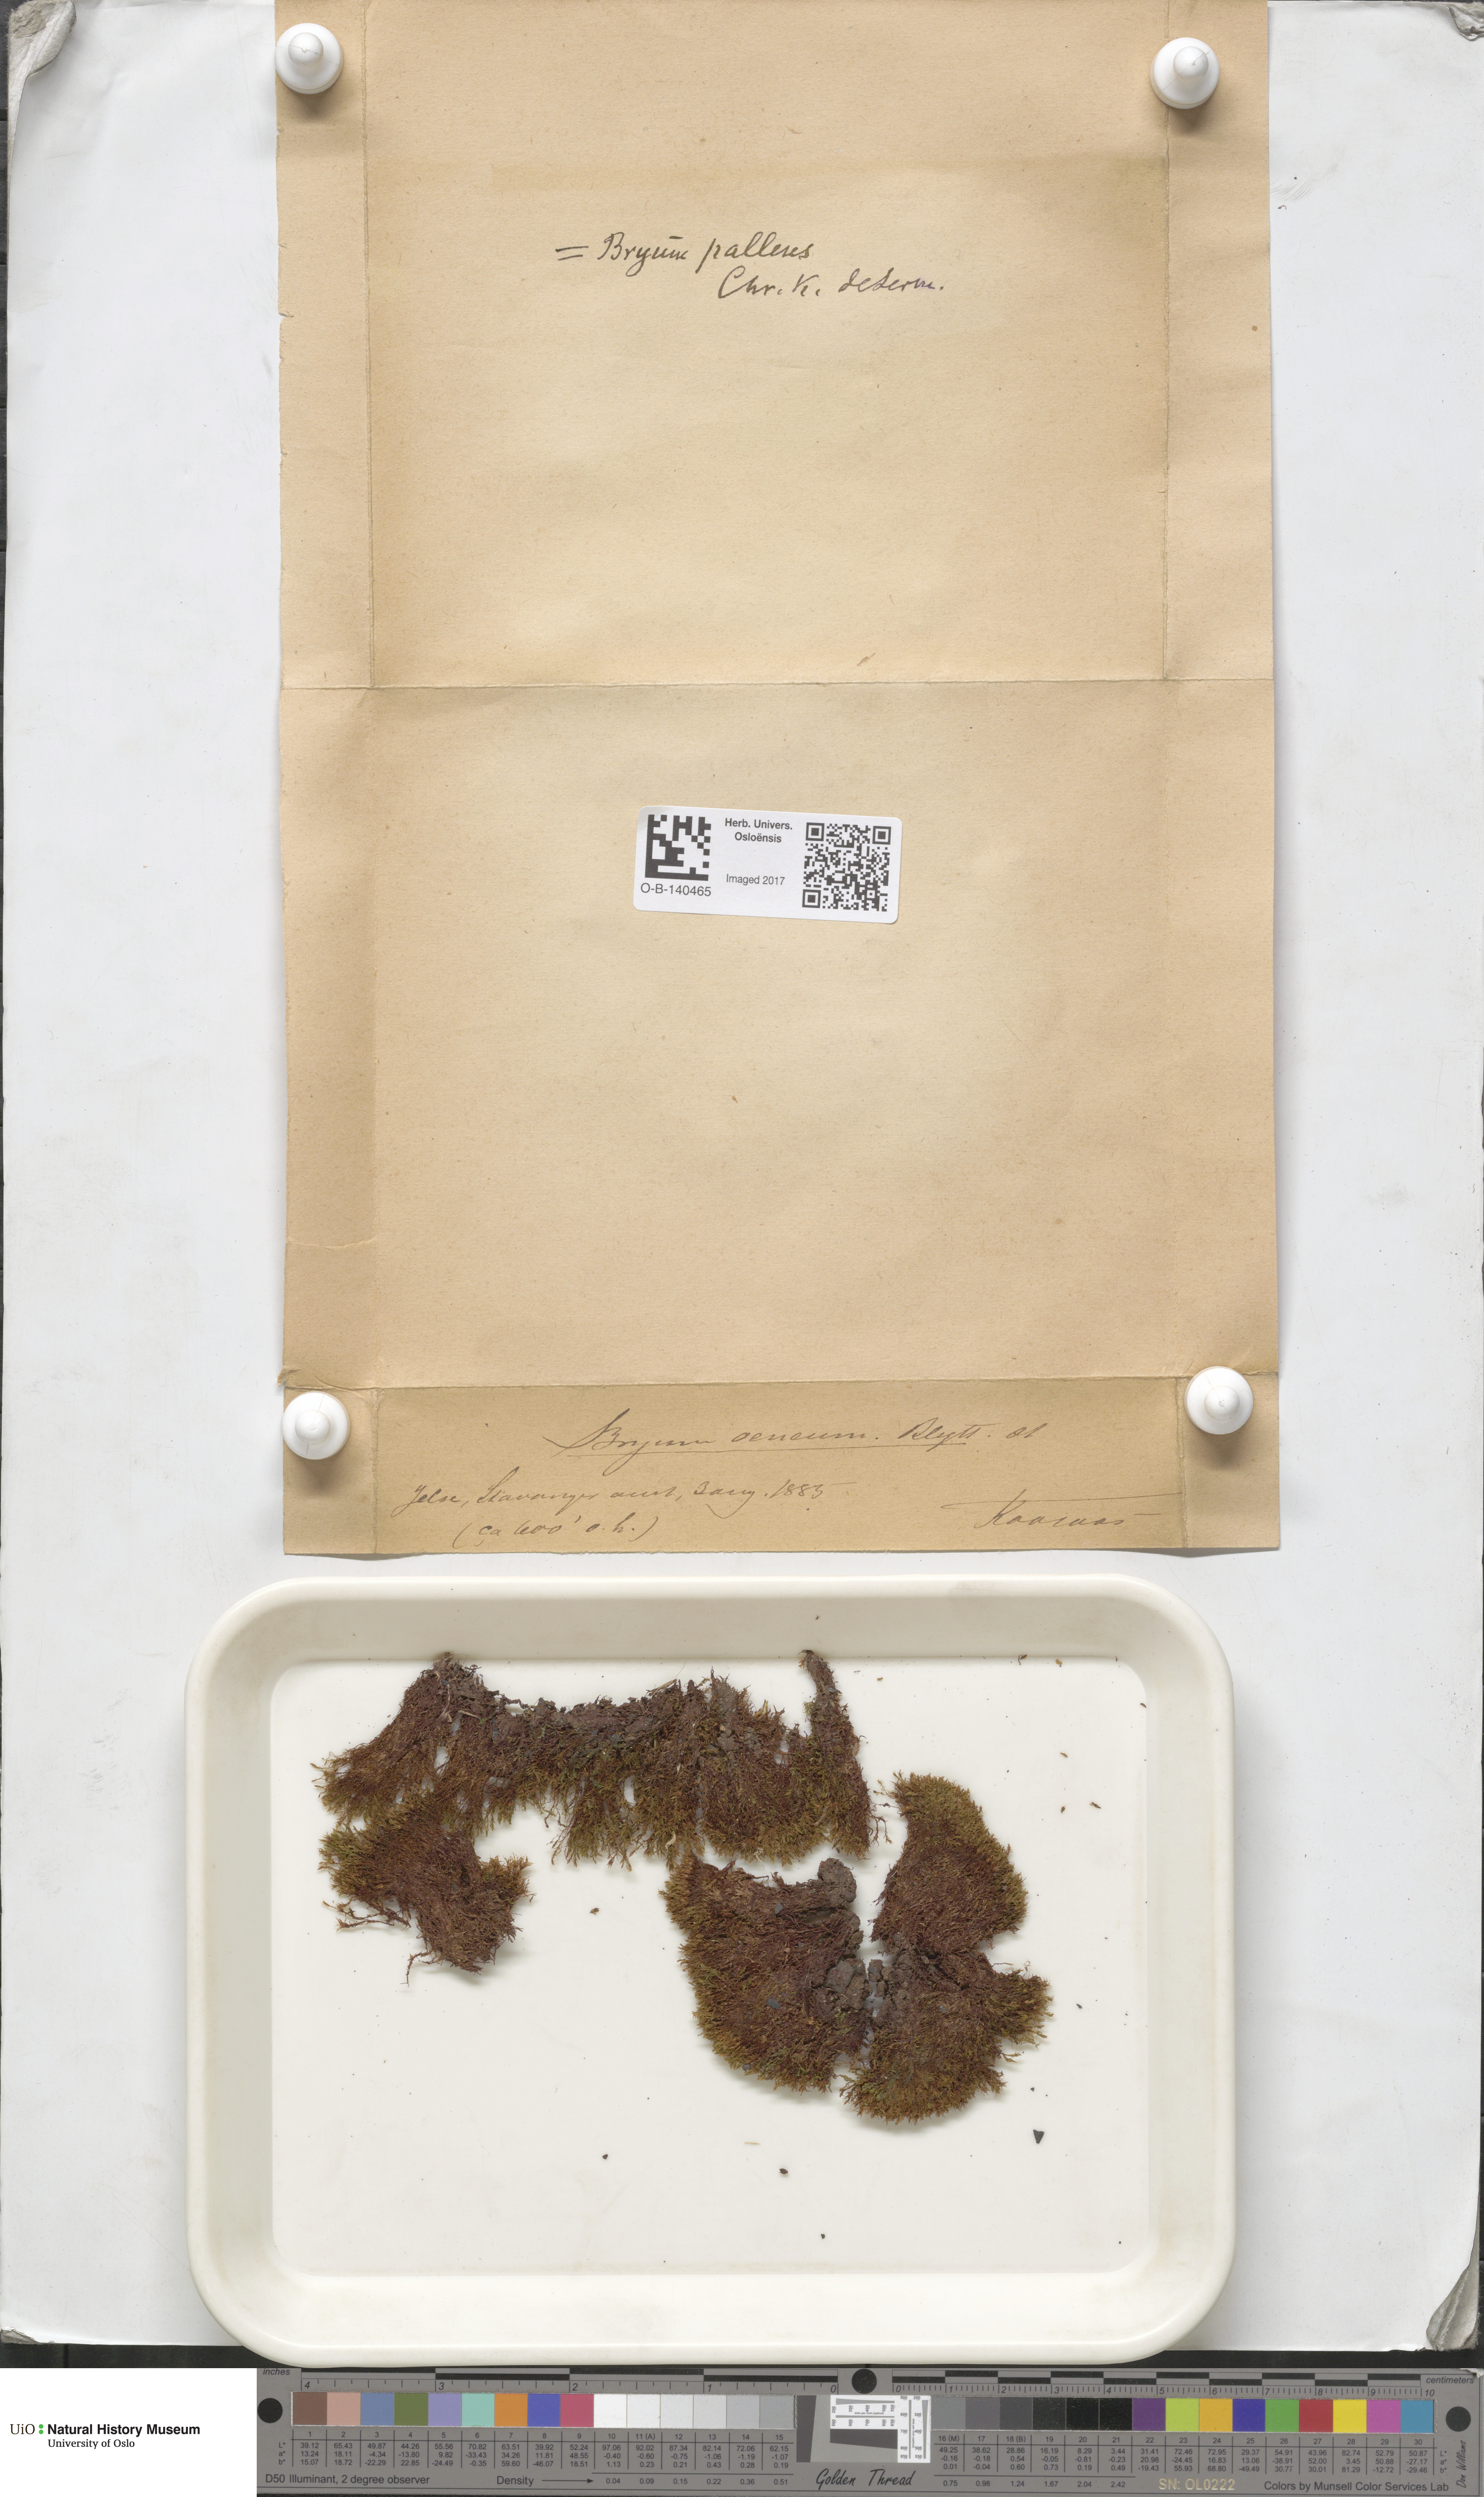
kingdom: Plantae
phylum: Bryophyta
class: Bryopsida
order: Bryales
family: Bryaceae
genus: Ptychostomum
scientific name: Ptychostomum pallens
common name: Pale thread-moss
